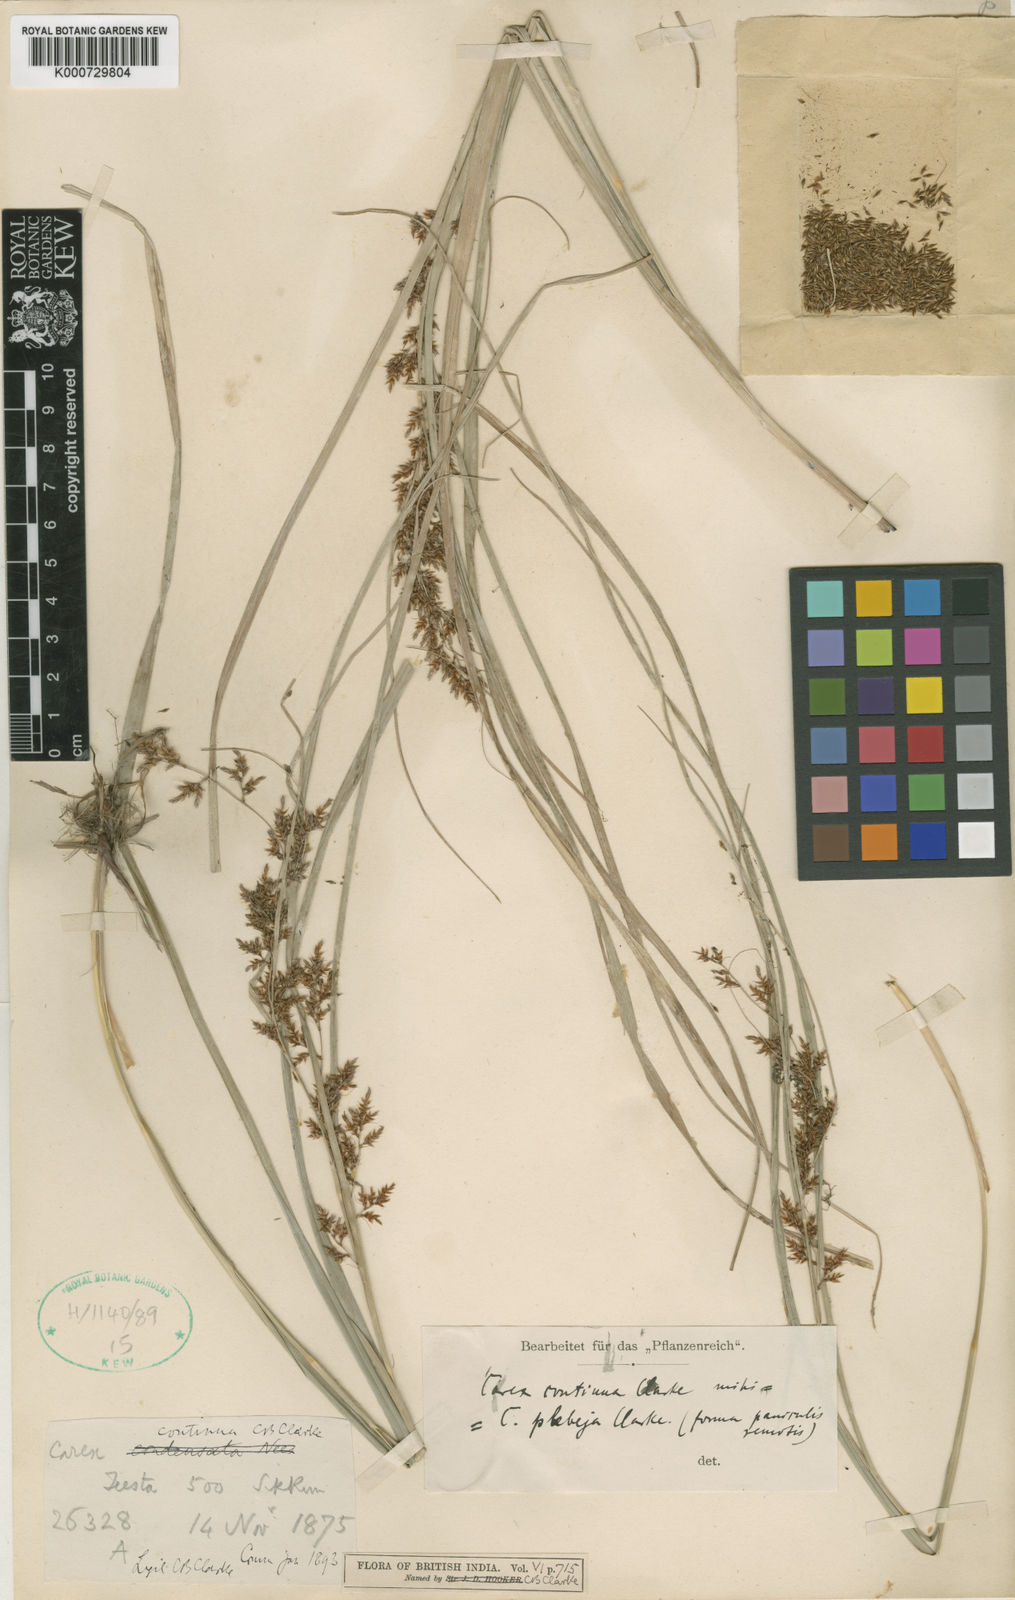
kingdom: Plantae
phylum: Tracheophyta
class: Liliopsida
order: Poales
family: Cyperaceae
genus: Carex
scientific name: Carex continua
